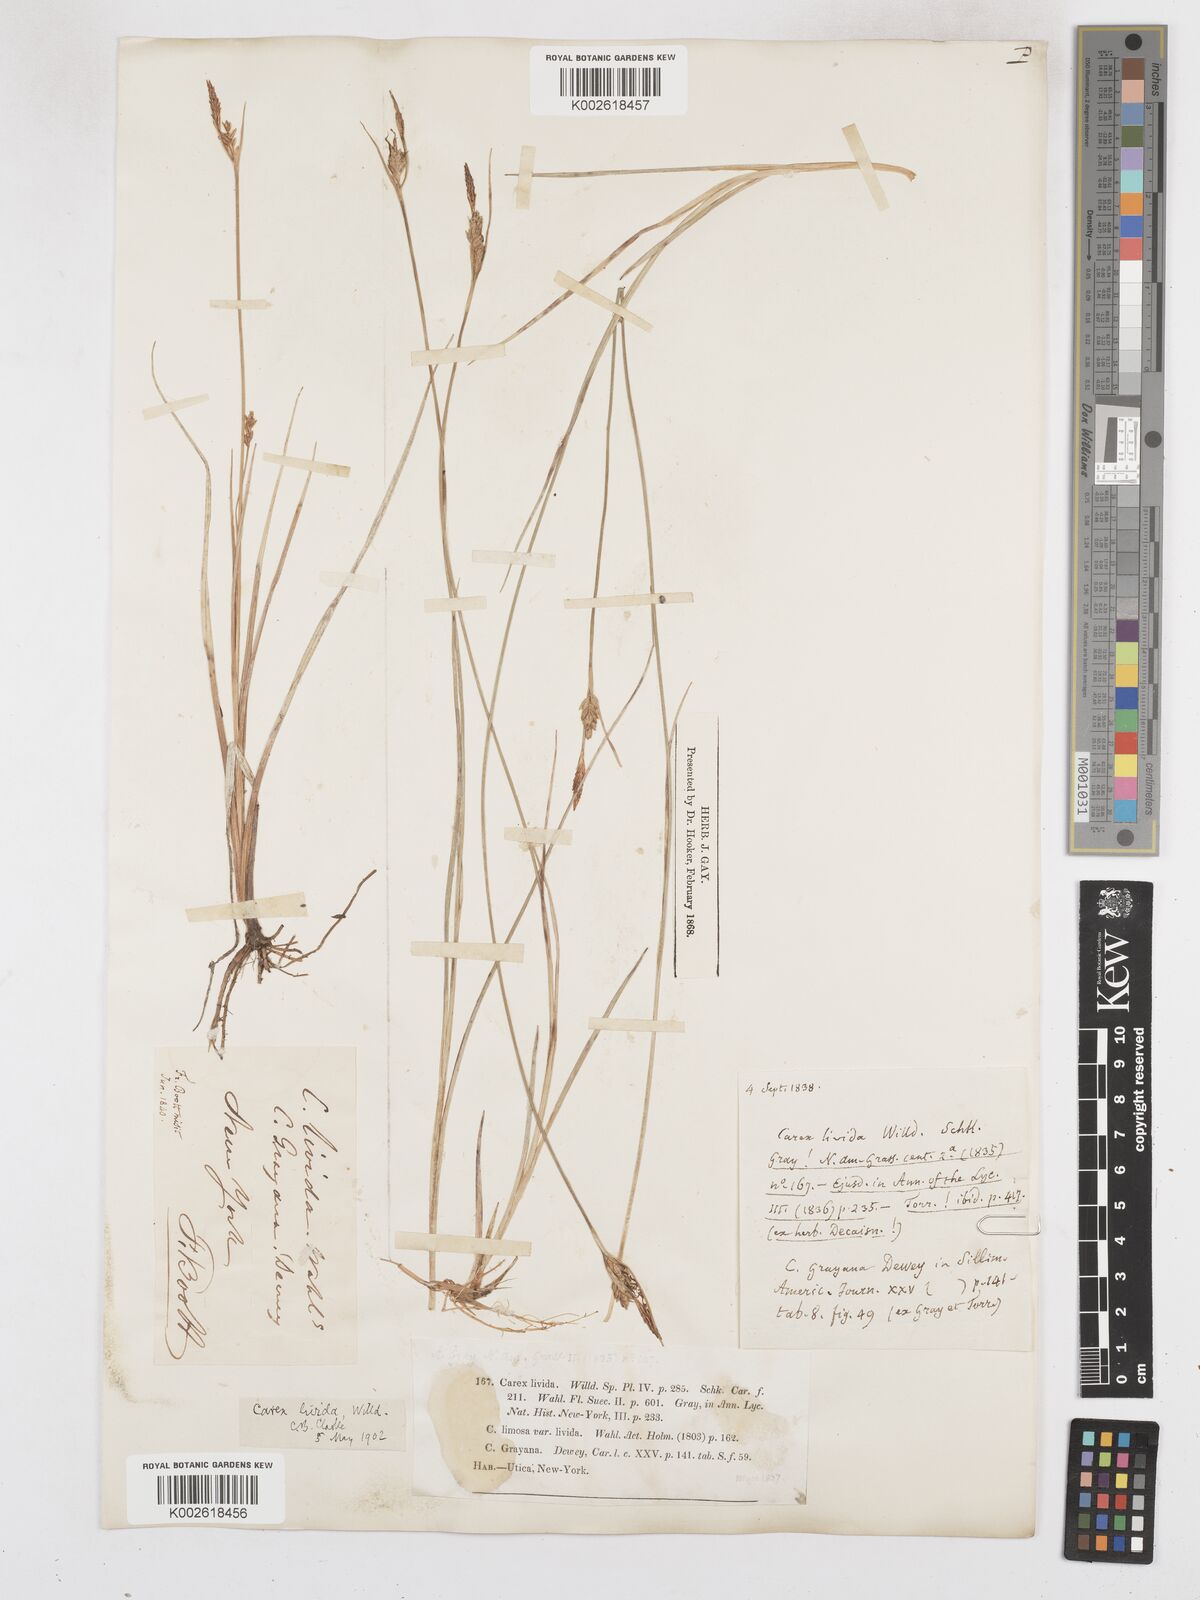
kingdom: Plantae
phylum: Tracheophyta
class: Liliopsida
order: Poales
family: Cyperaceae
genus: Carex
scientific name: Carex livida
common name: Livid sedge
